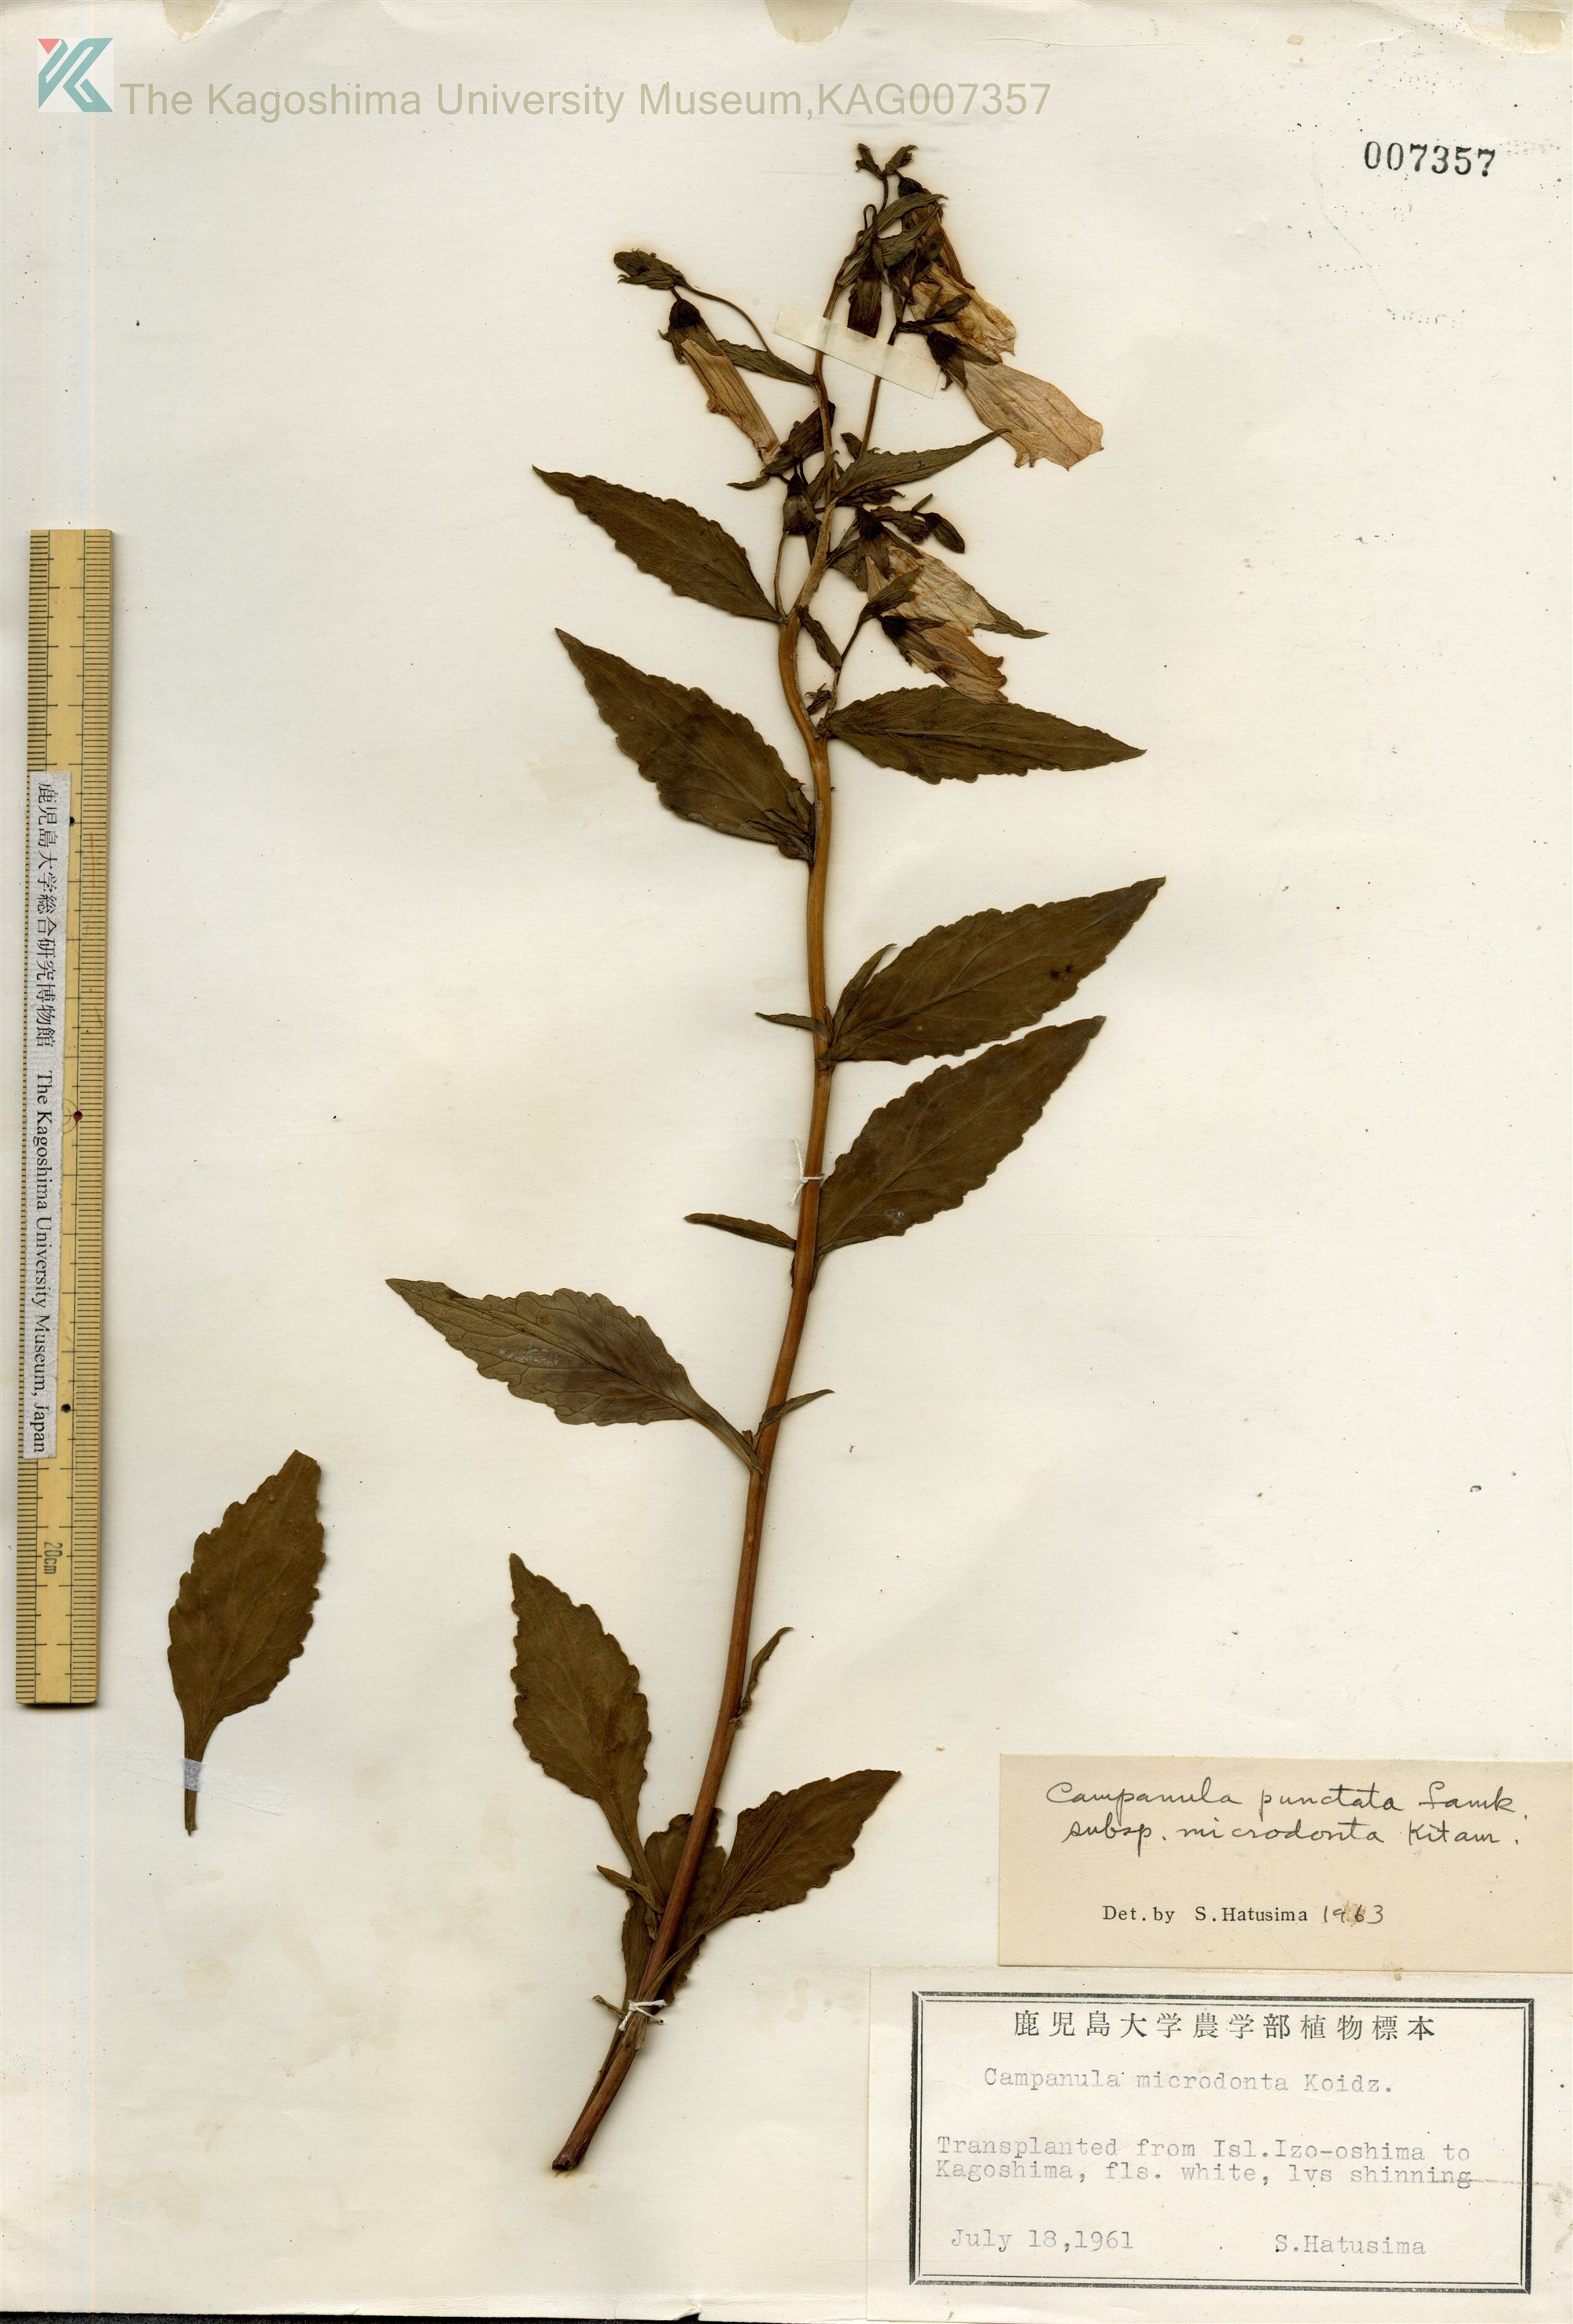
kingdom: Plantae
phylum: Tracheophyta
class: Magnoliopsida
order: Asterales
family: Campanulaceae
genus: Campanula
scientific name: Campanula microdonta
